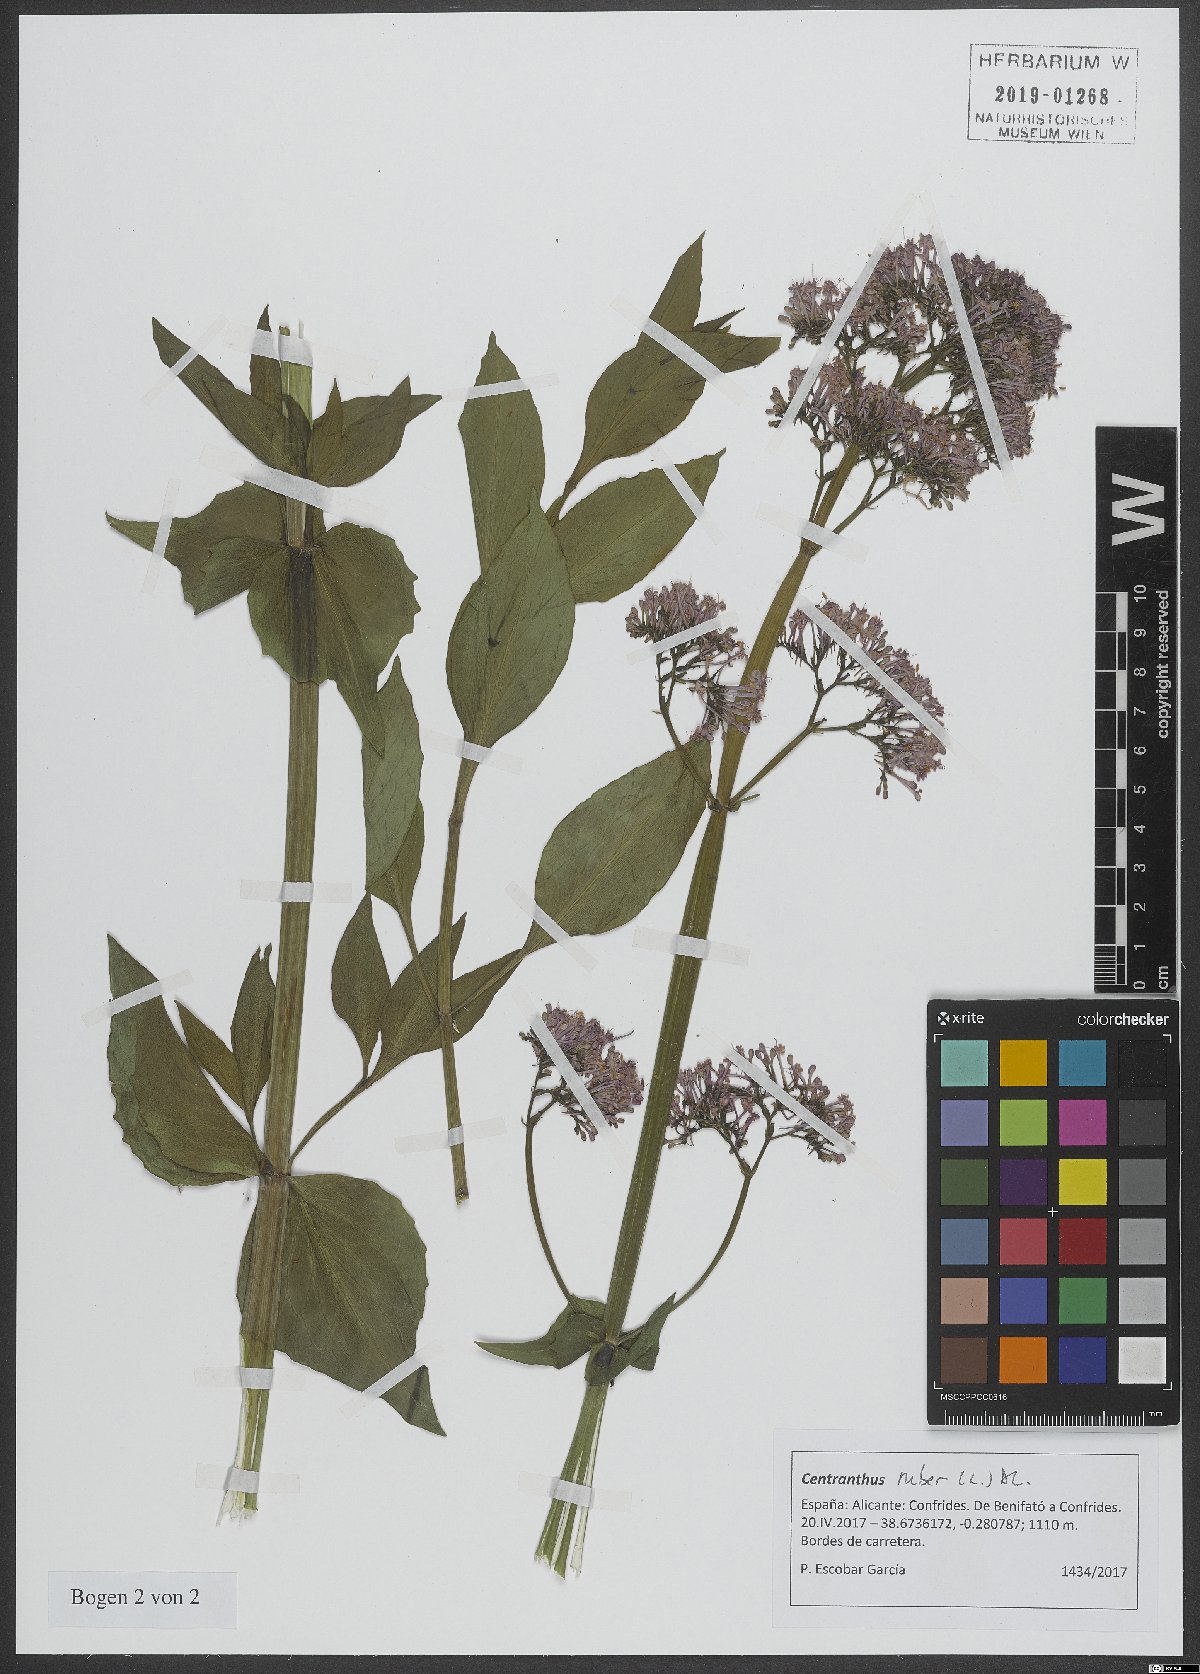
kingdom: Plantae
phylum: Tracheophyta
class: Magnoliopsida
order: Dipsacales
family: Caprifoliaceae
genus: Centranthus
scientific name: Centranthus ruber
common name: Red valerian
